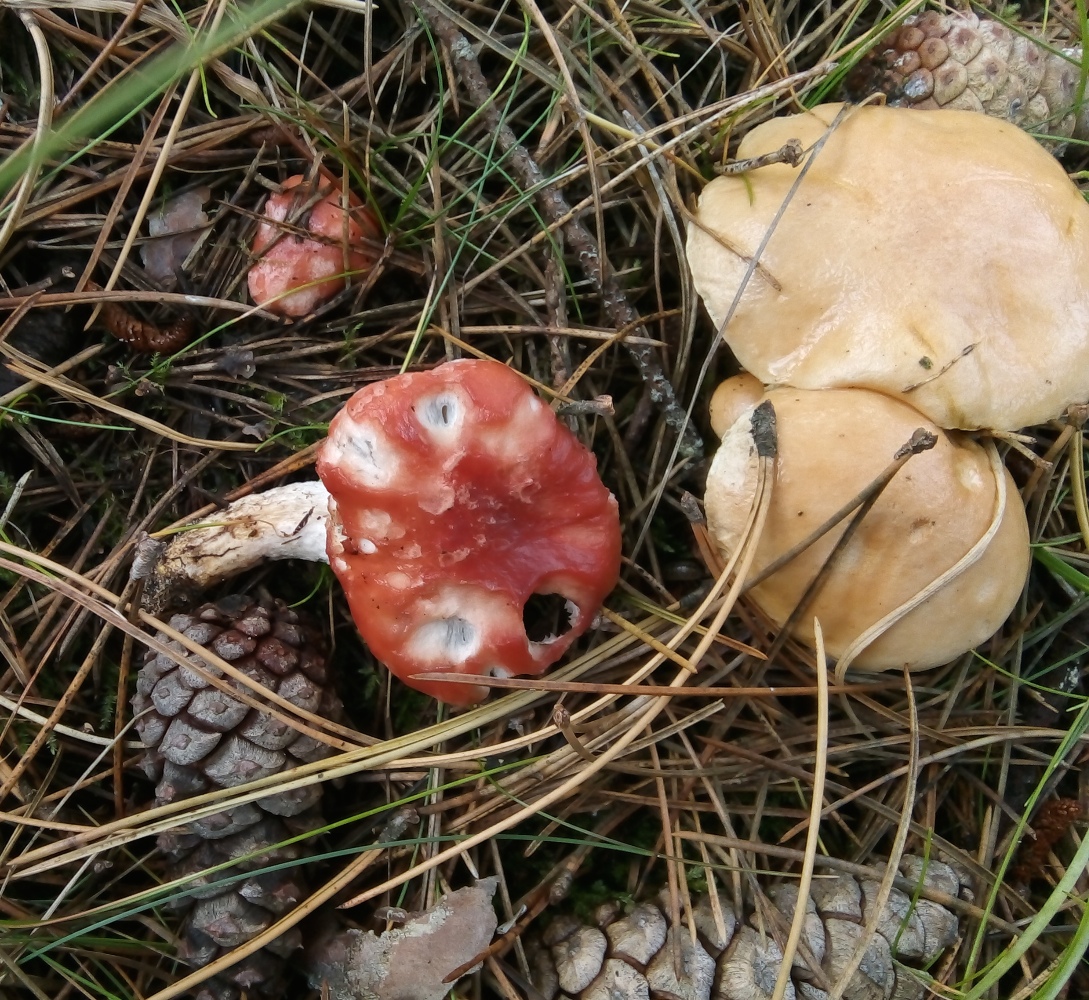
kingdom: Fungi
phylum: Basidiomycota
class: Agaricomycetes
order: Boletales
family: Gomphidiaceae
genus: Gomphidius
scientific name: Gomphidius roseus
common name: rosenrød slimslør
